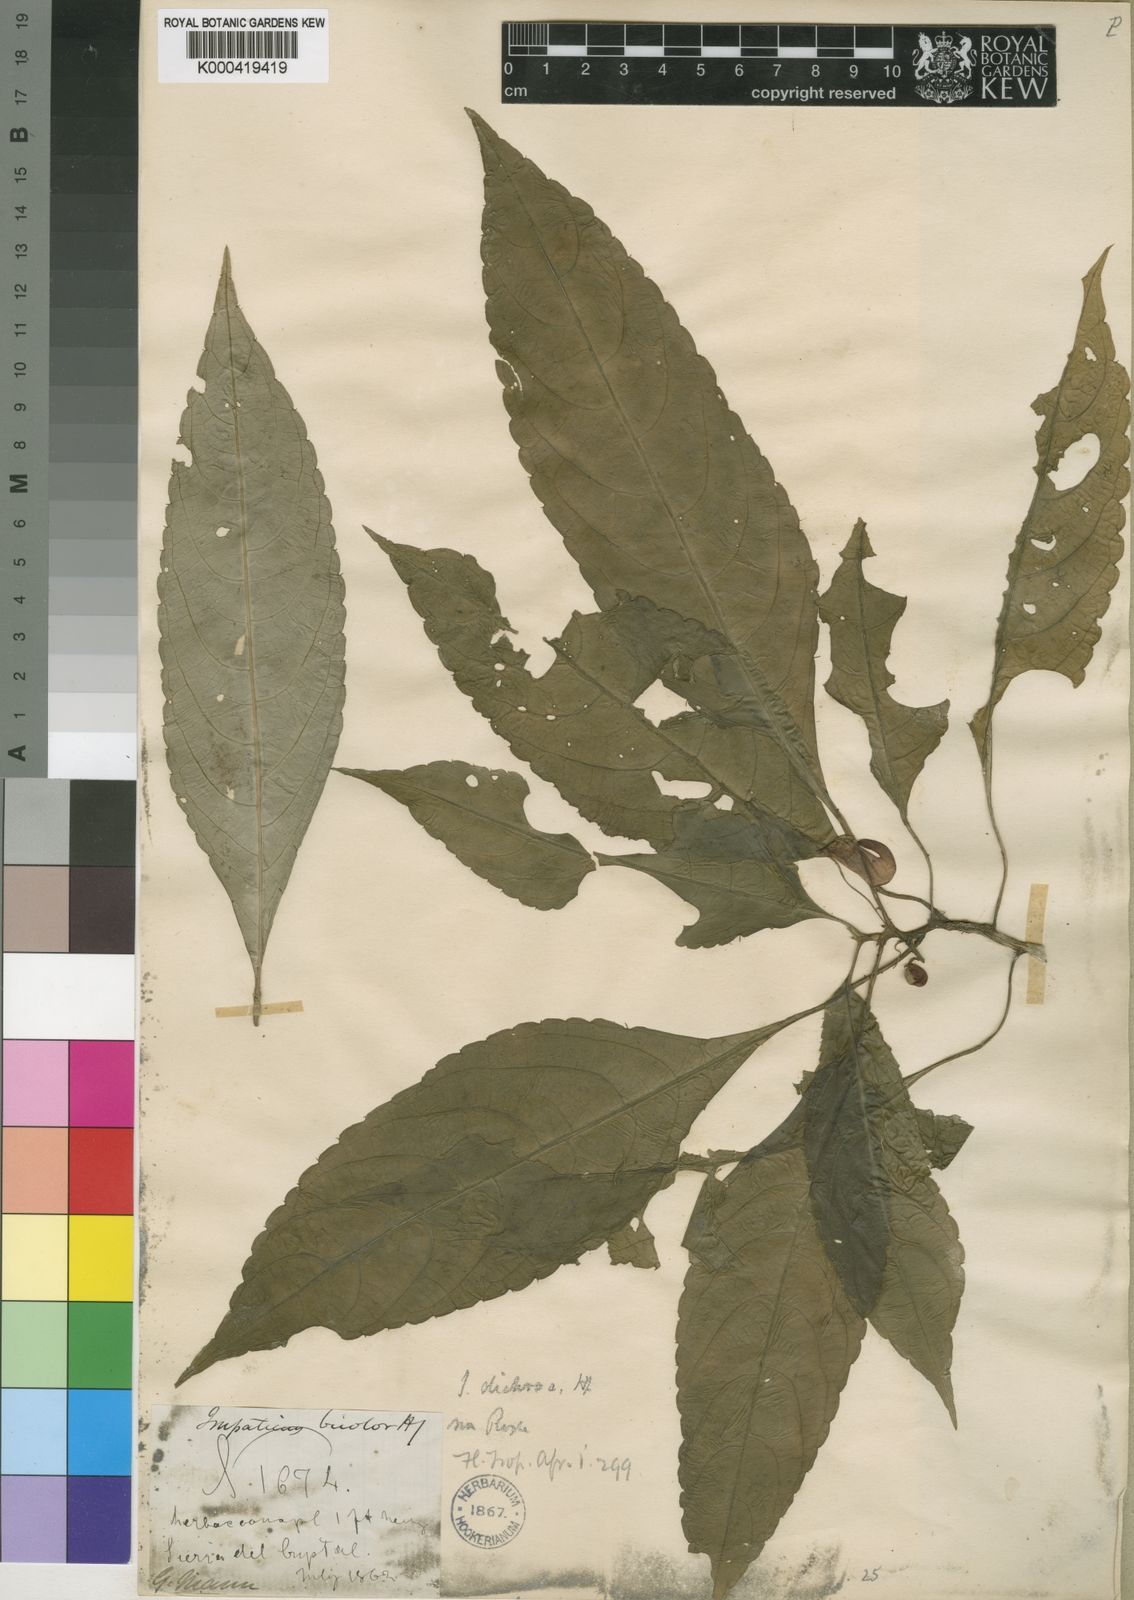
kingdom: Plantae
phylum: Tracheophyta
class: Magnoliopsida
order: Ericales
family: Balsaminaceae
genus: Impatiens
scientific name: Impatiens niamniamensis
